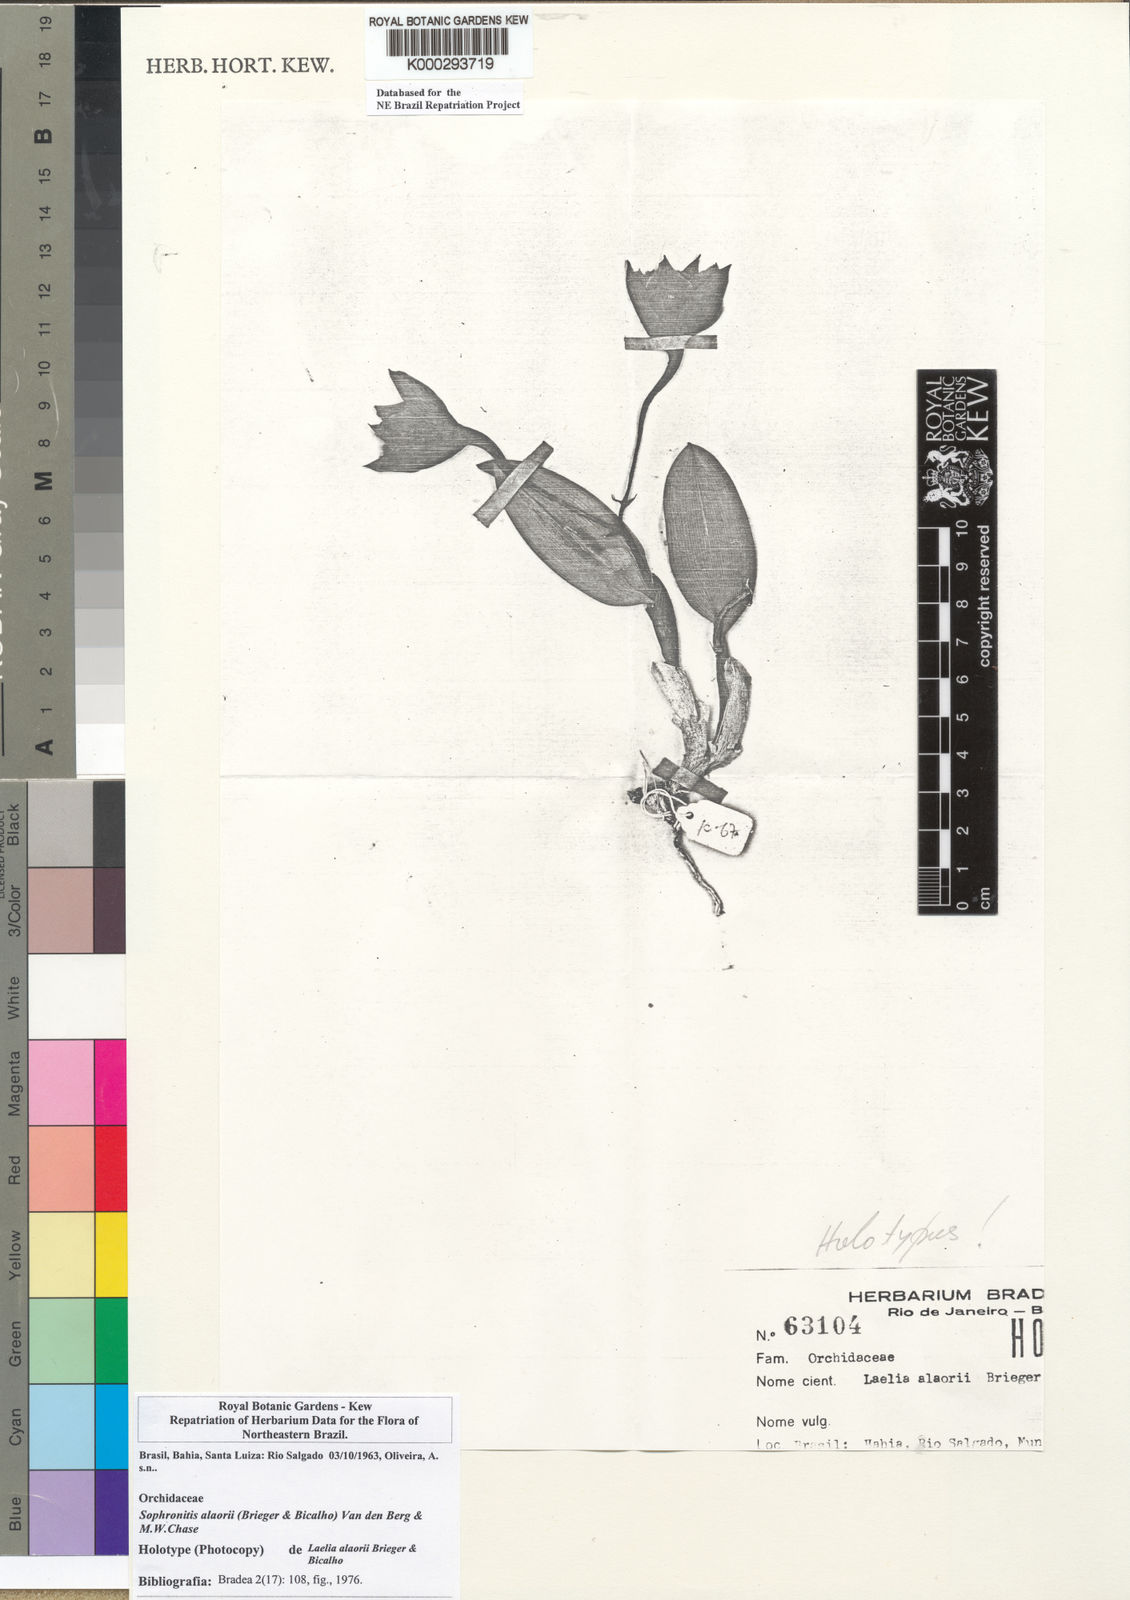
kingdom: Plantae
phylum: Tracheophyta
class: Liliopsida
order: Asparagales
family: Orchidaceae
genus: Cattleya
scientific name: Cattleya alaorii
